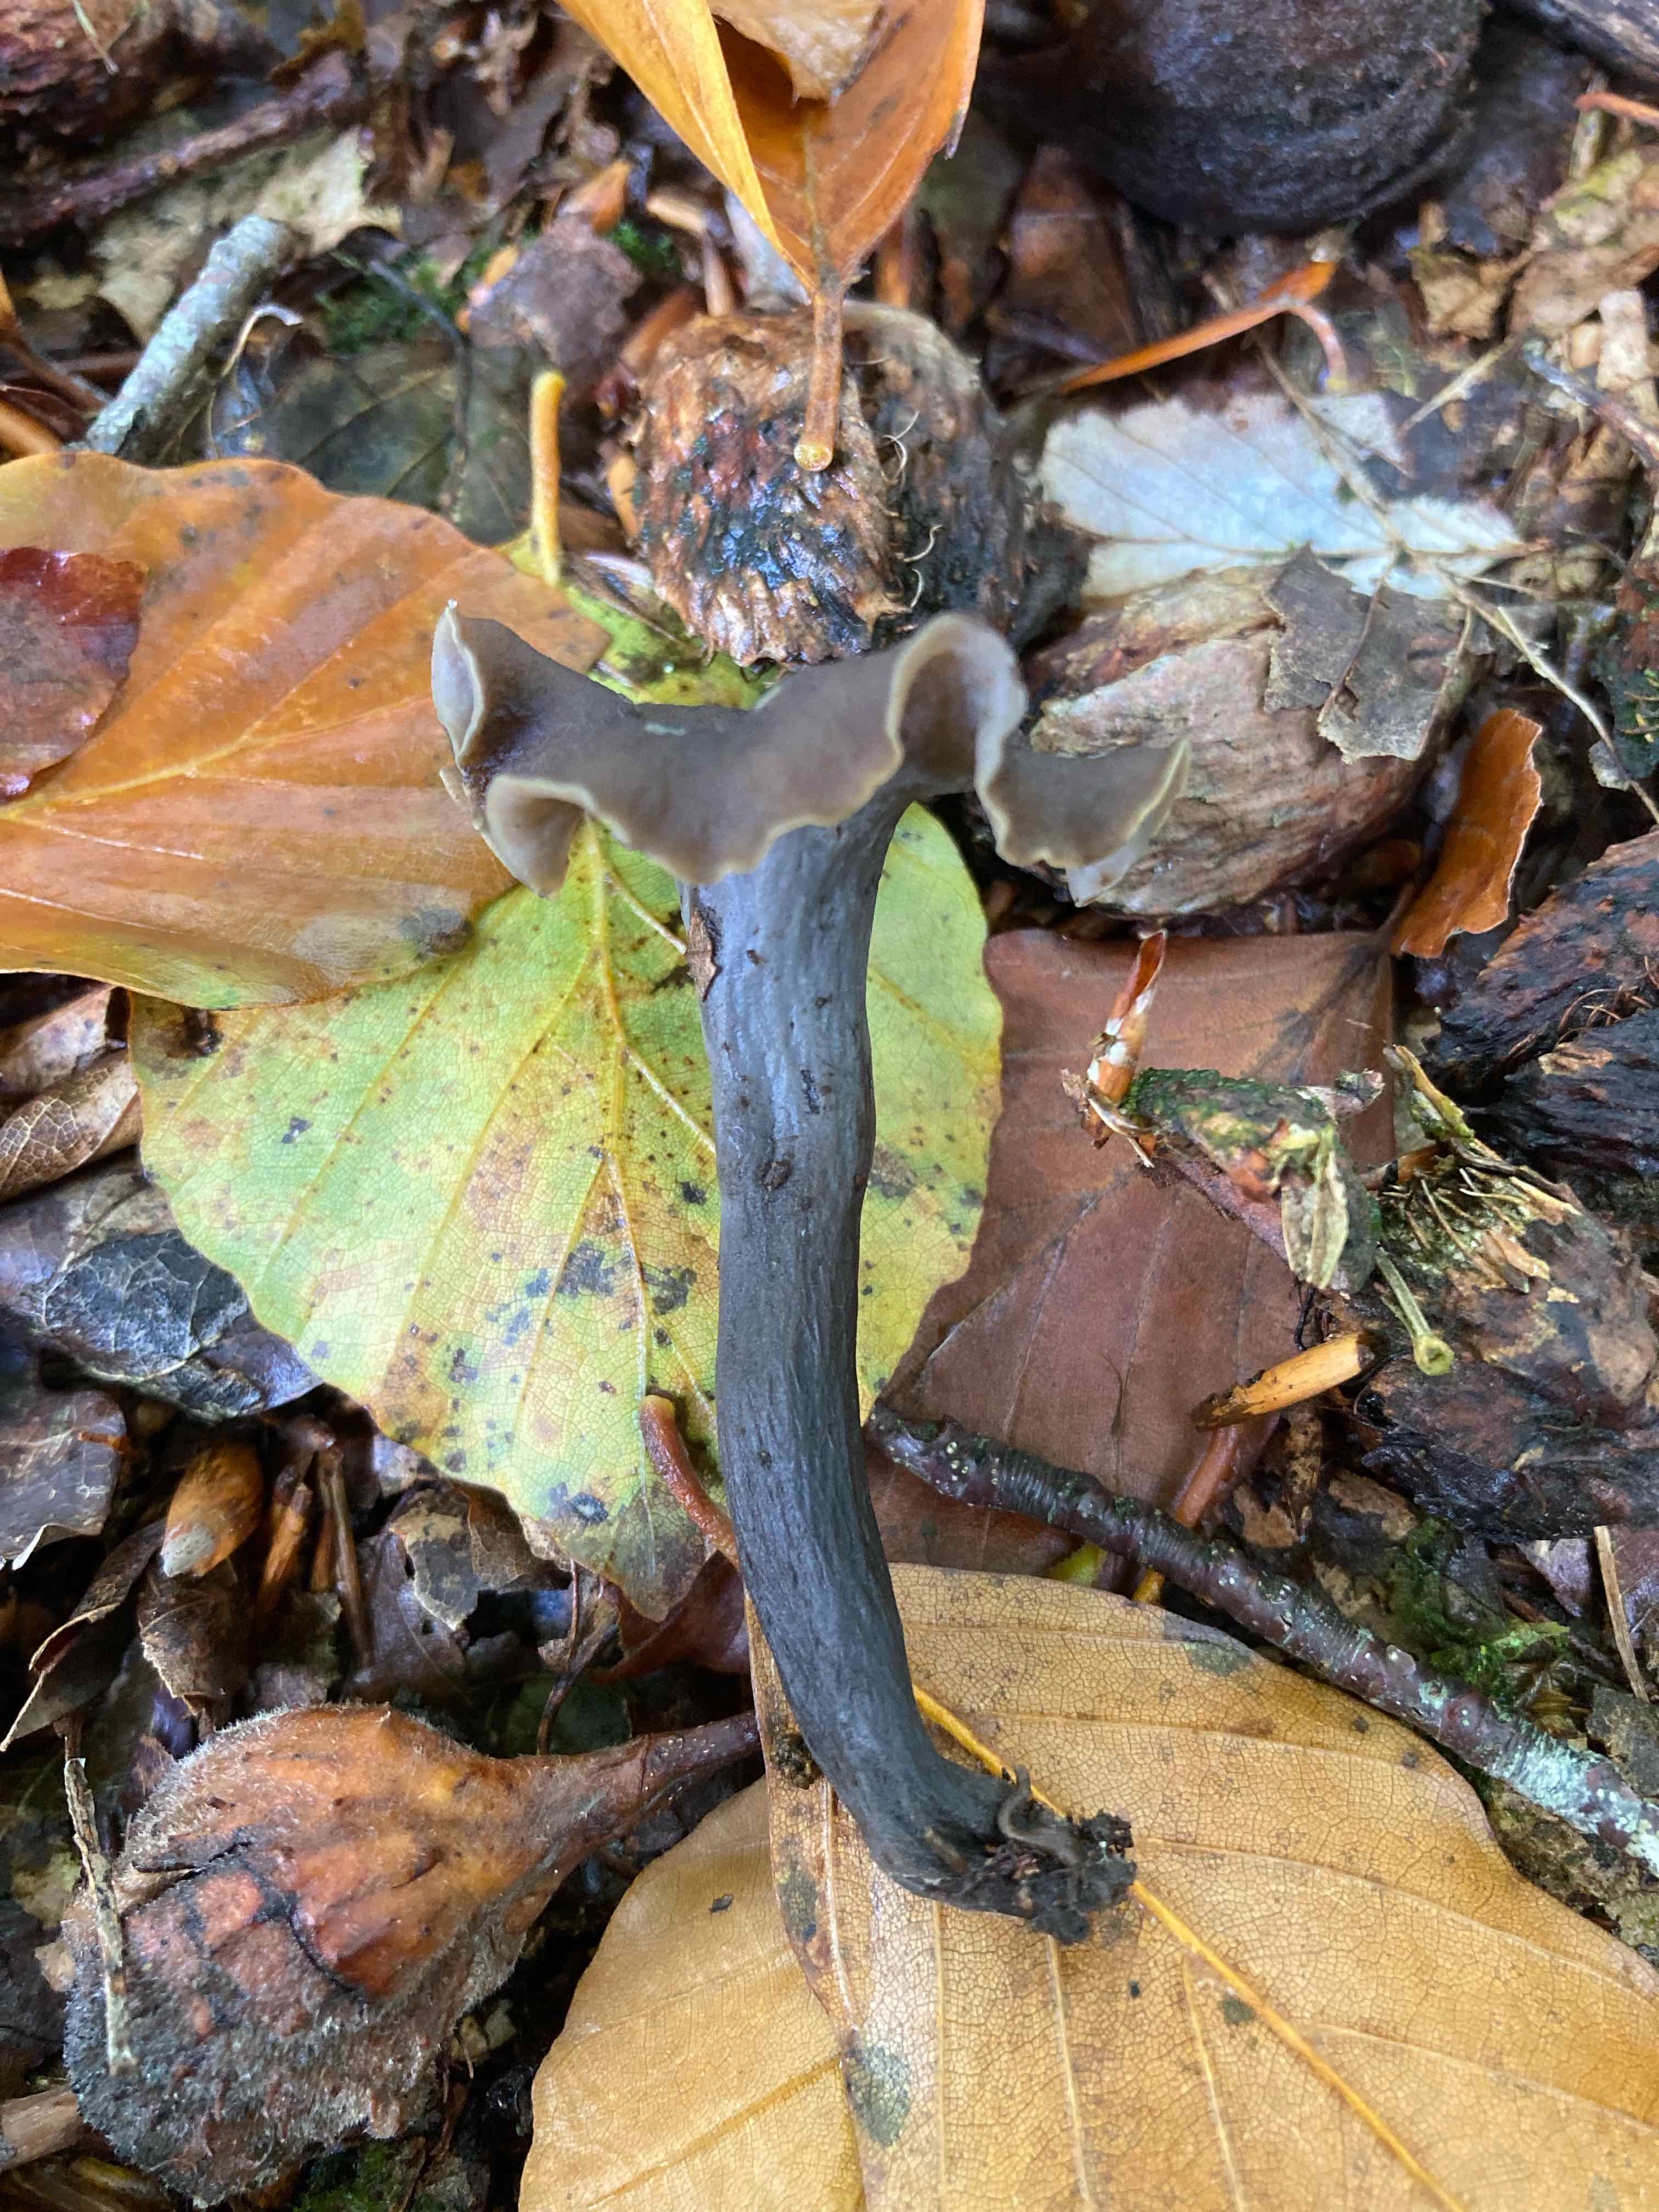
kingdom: Fungi
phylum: Basidiomycota
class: Agaricomycetes
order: Cantharellales
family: Hydnaceae
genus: Craterellus
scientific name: Craterellus cornucopioides
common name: trompetsvamp
